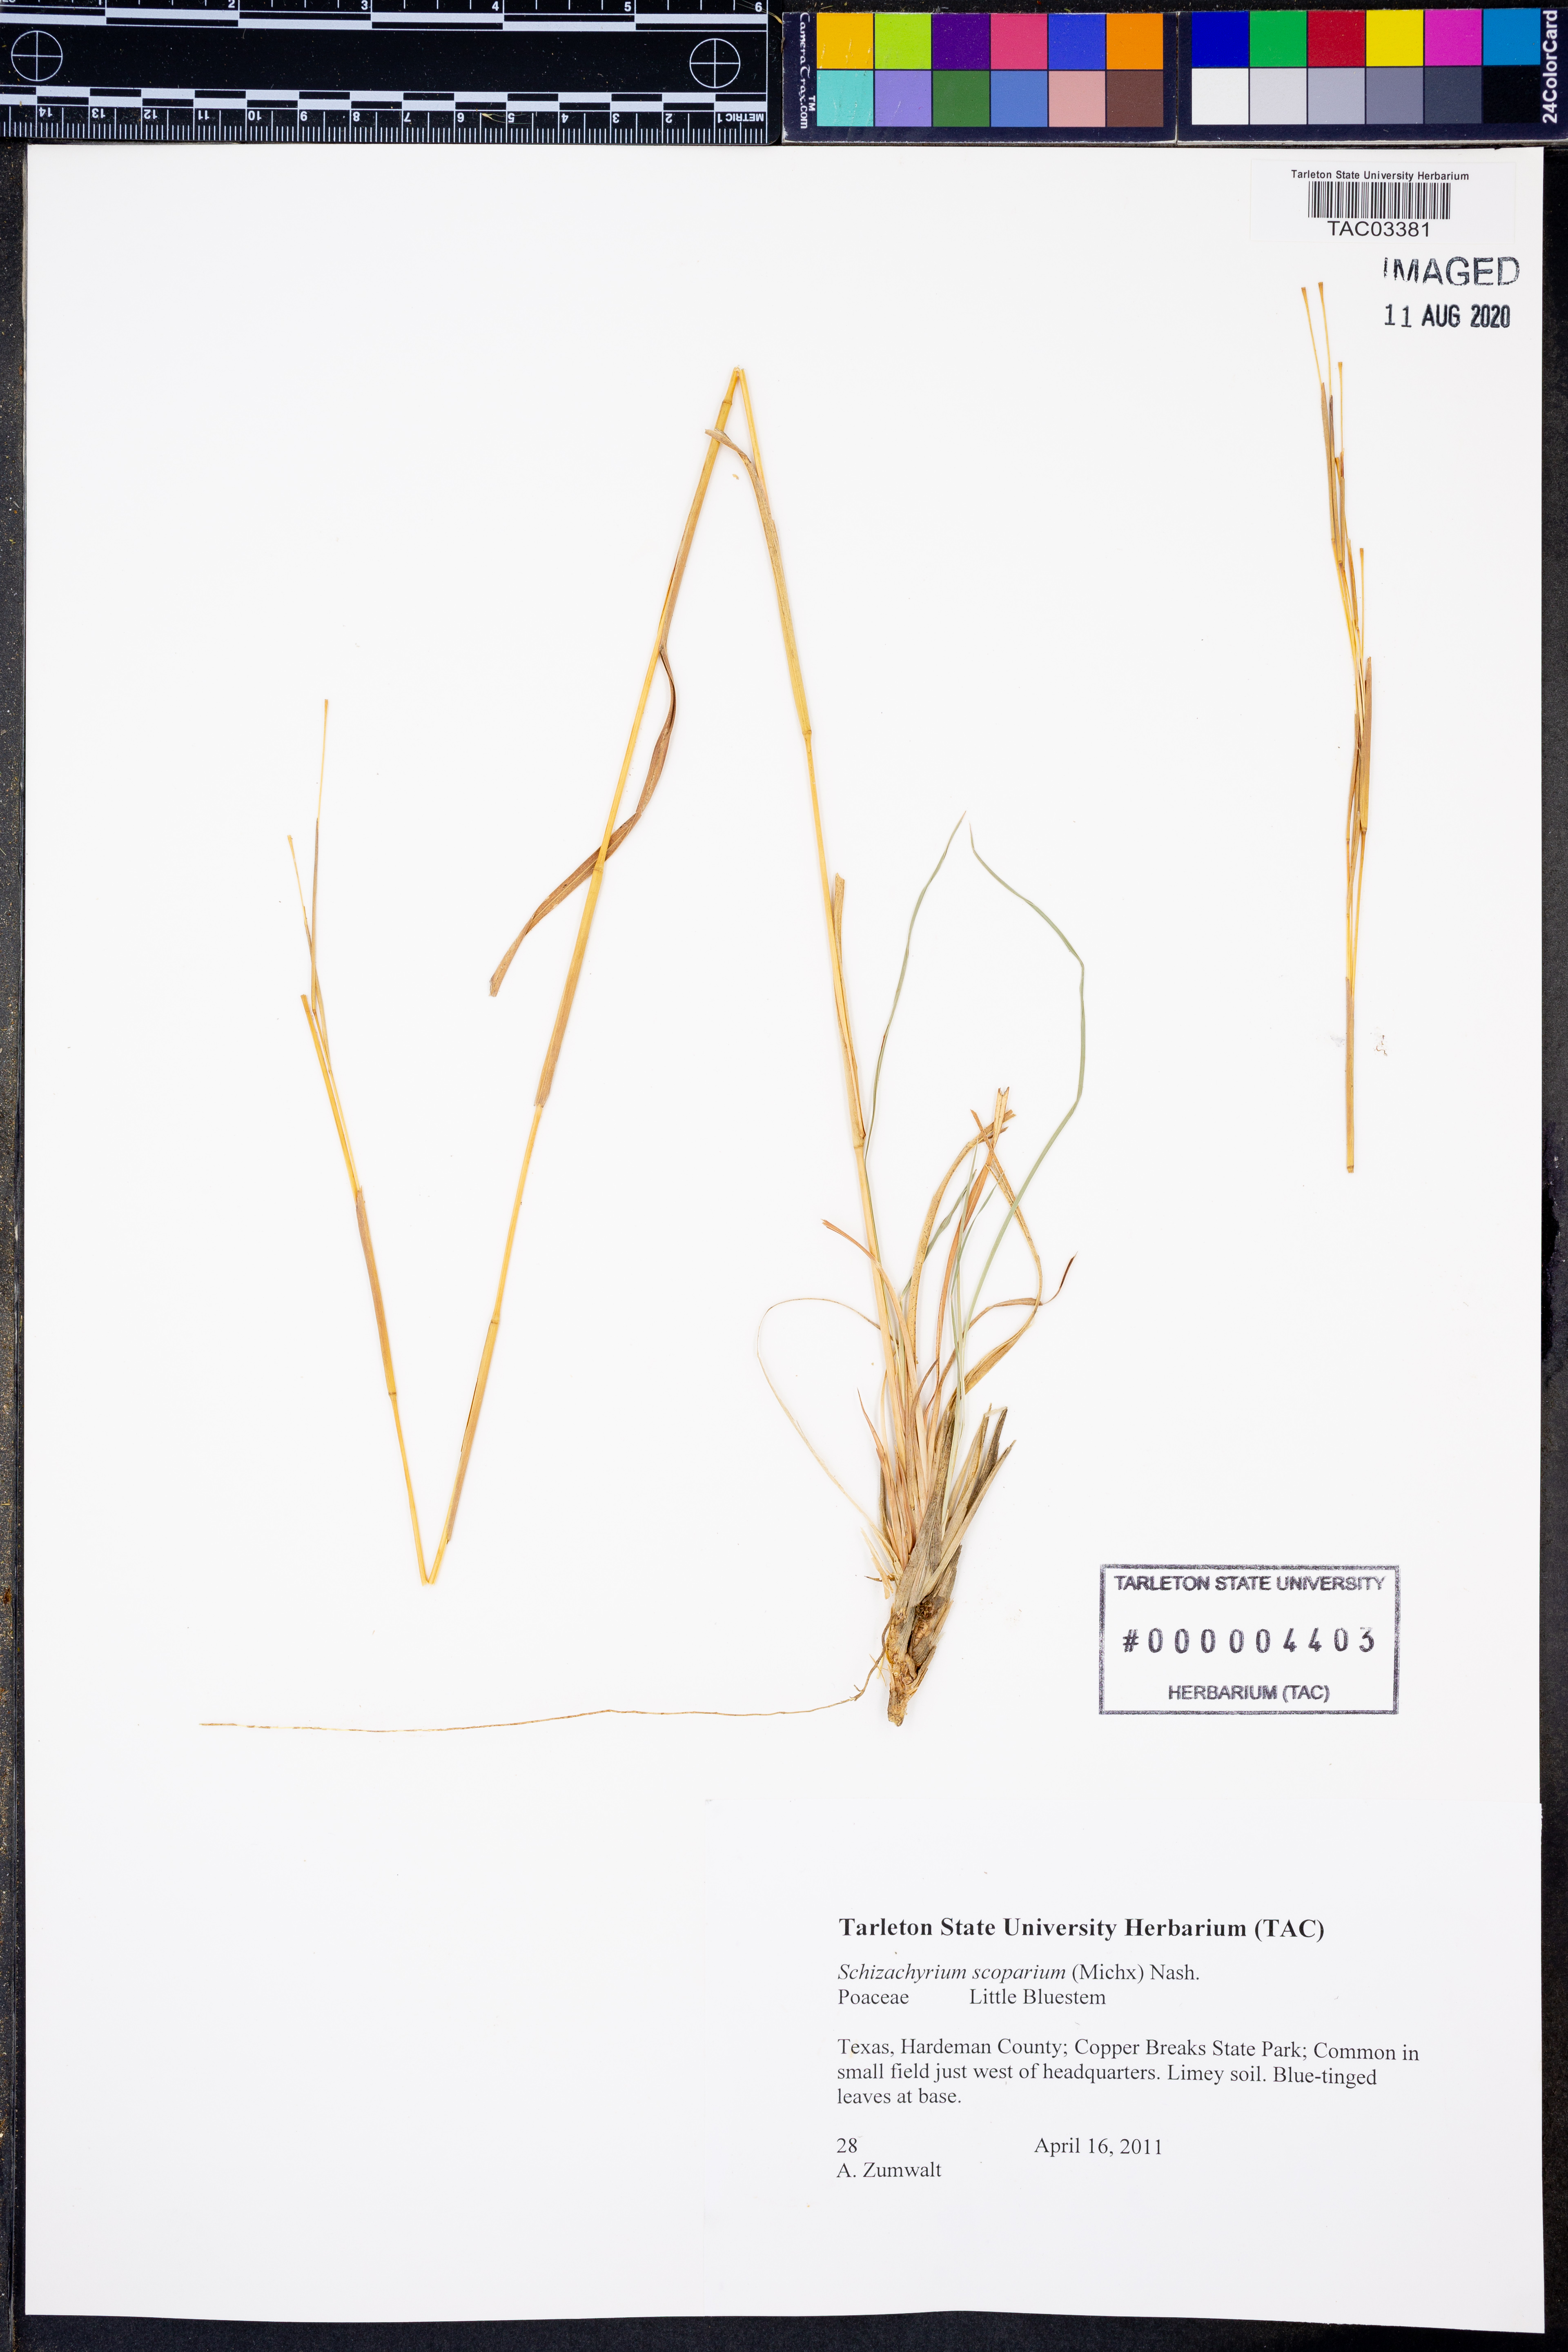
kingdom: Plantae
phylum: Tracheophyta
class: Liliopsida
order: Poales
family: Poaceae
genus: Schizachyrium
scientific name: Schizachyrium scoparium
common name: Little bluestem
